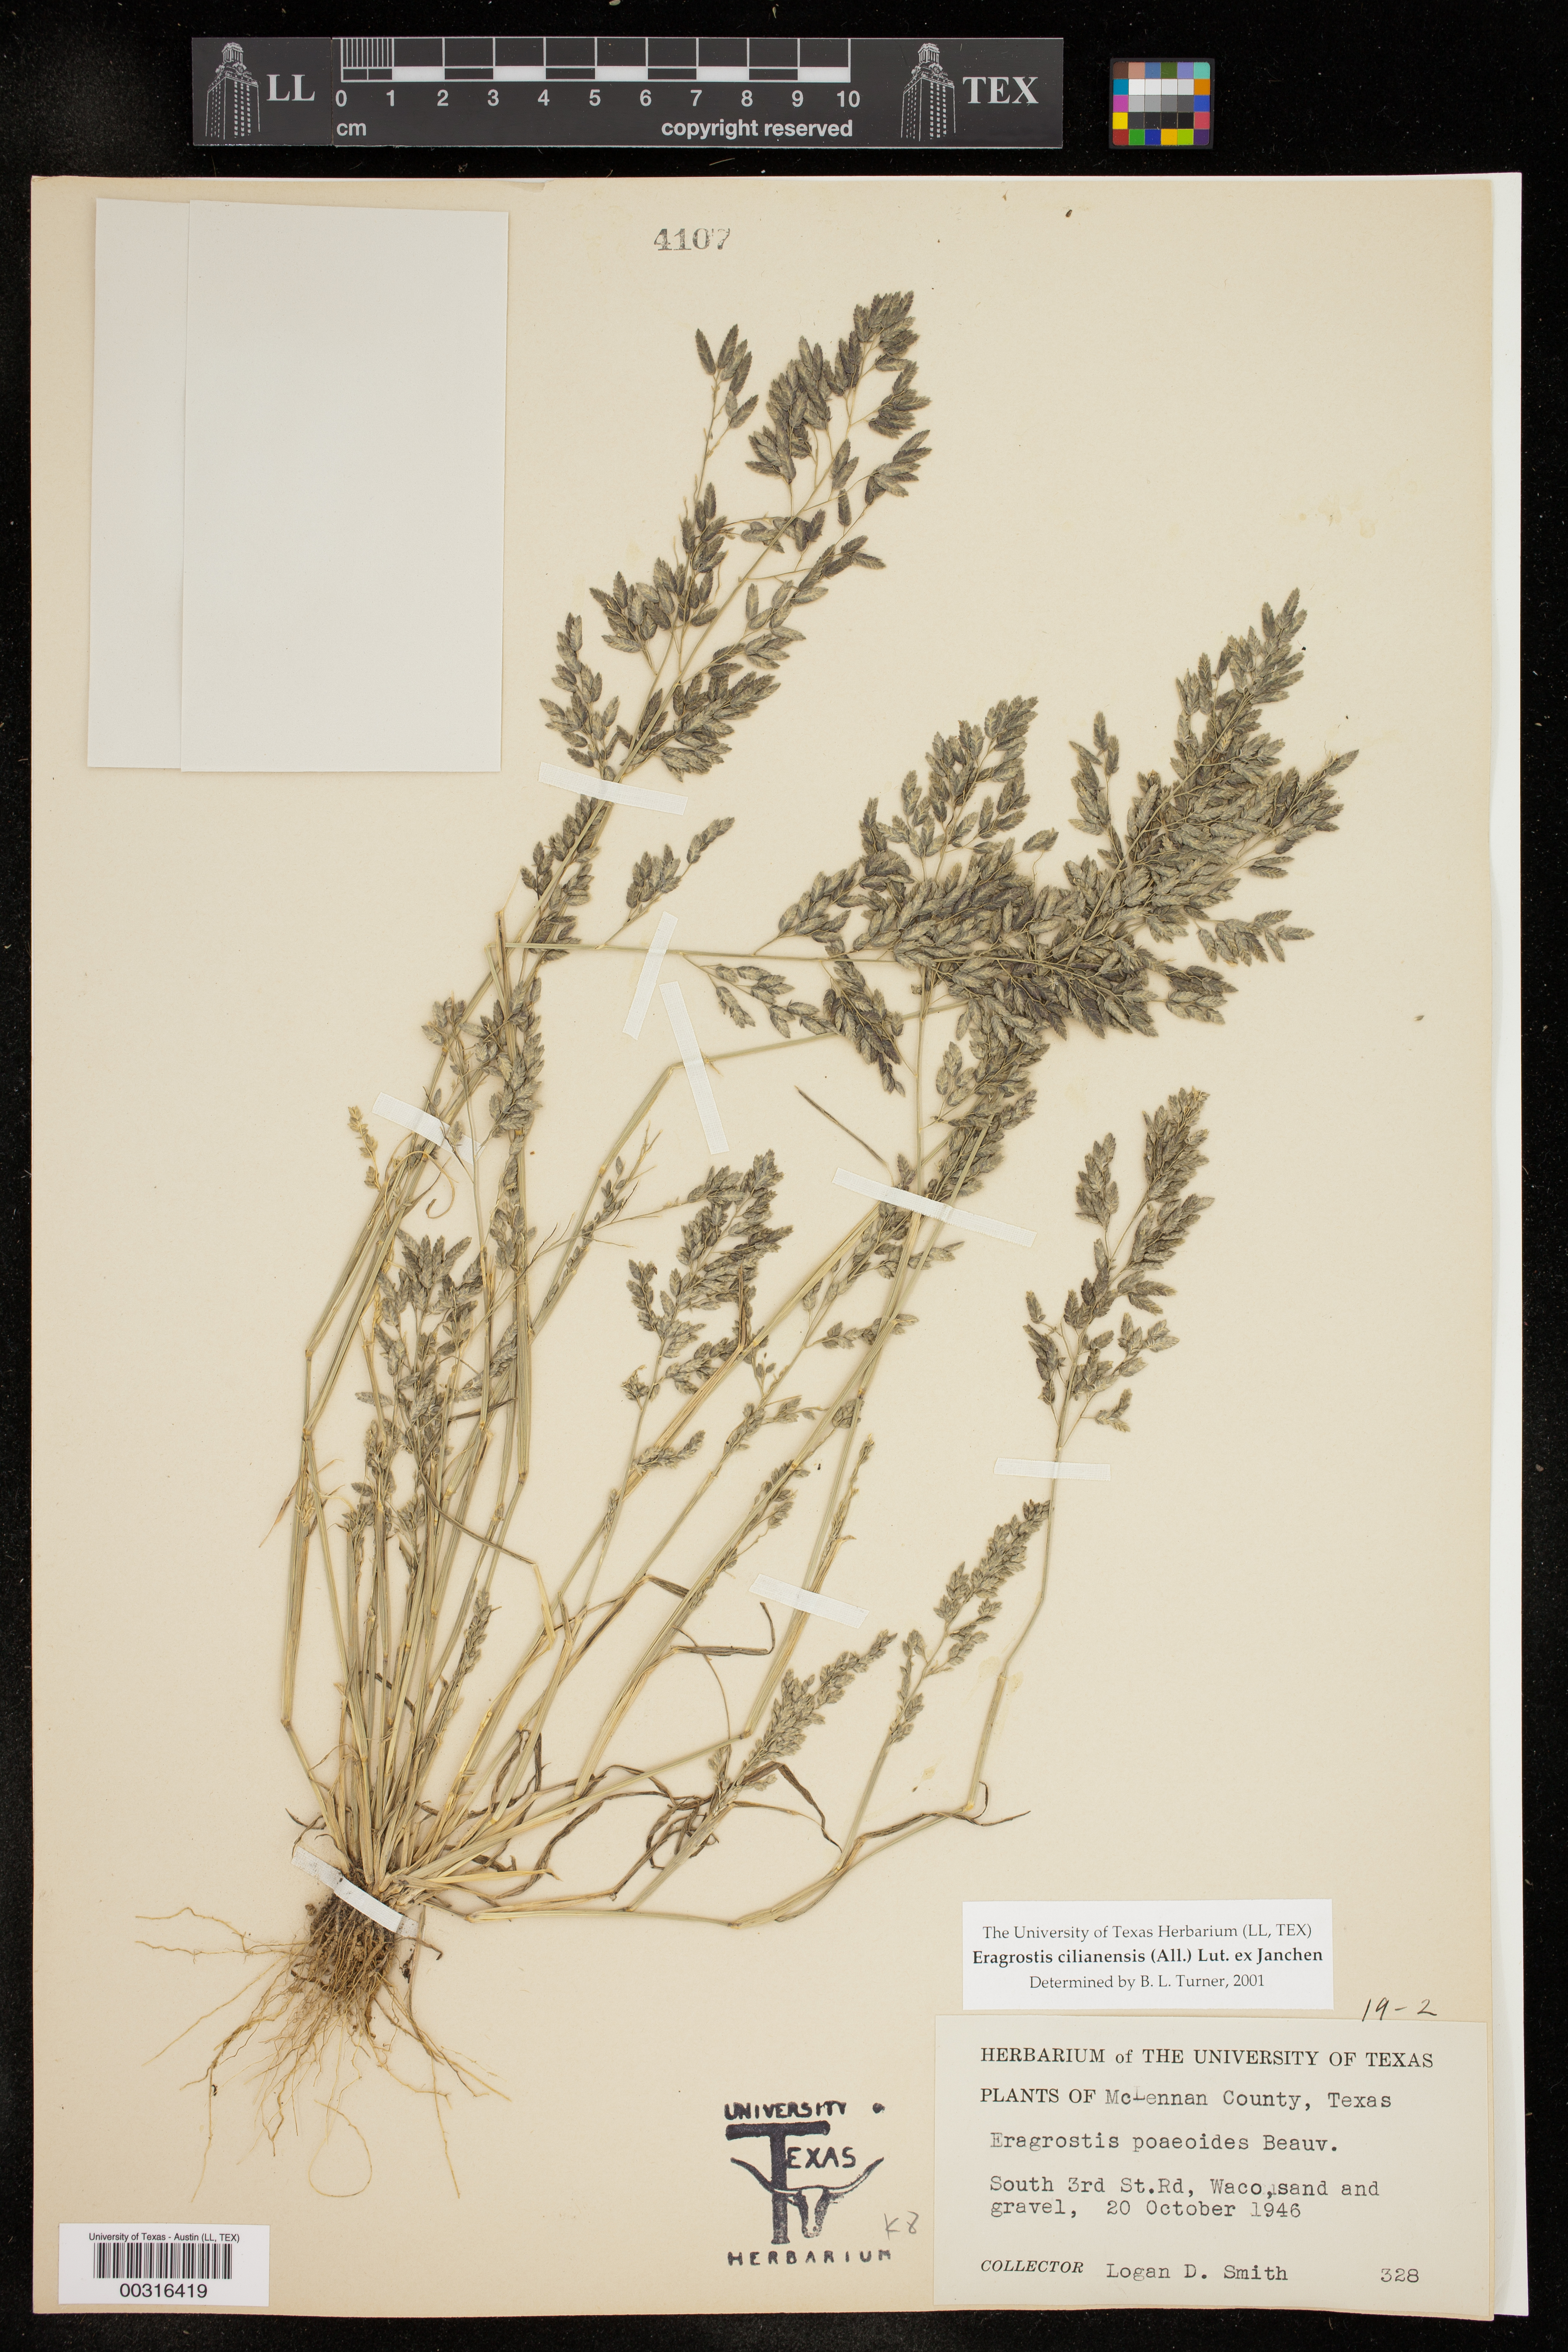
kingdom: Plantae
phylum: Tracheophyta
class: Liliopsida
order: Poales
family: Poaceae
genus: Eragrostis
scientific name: Eragrostis cilianensis
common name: Stinkgrass
